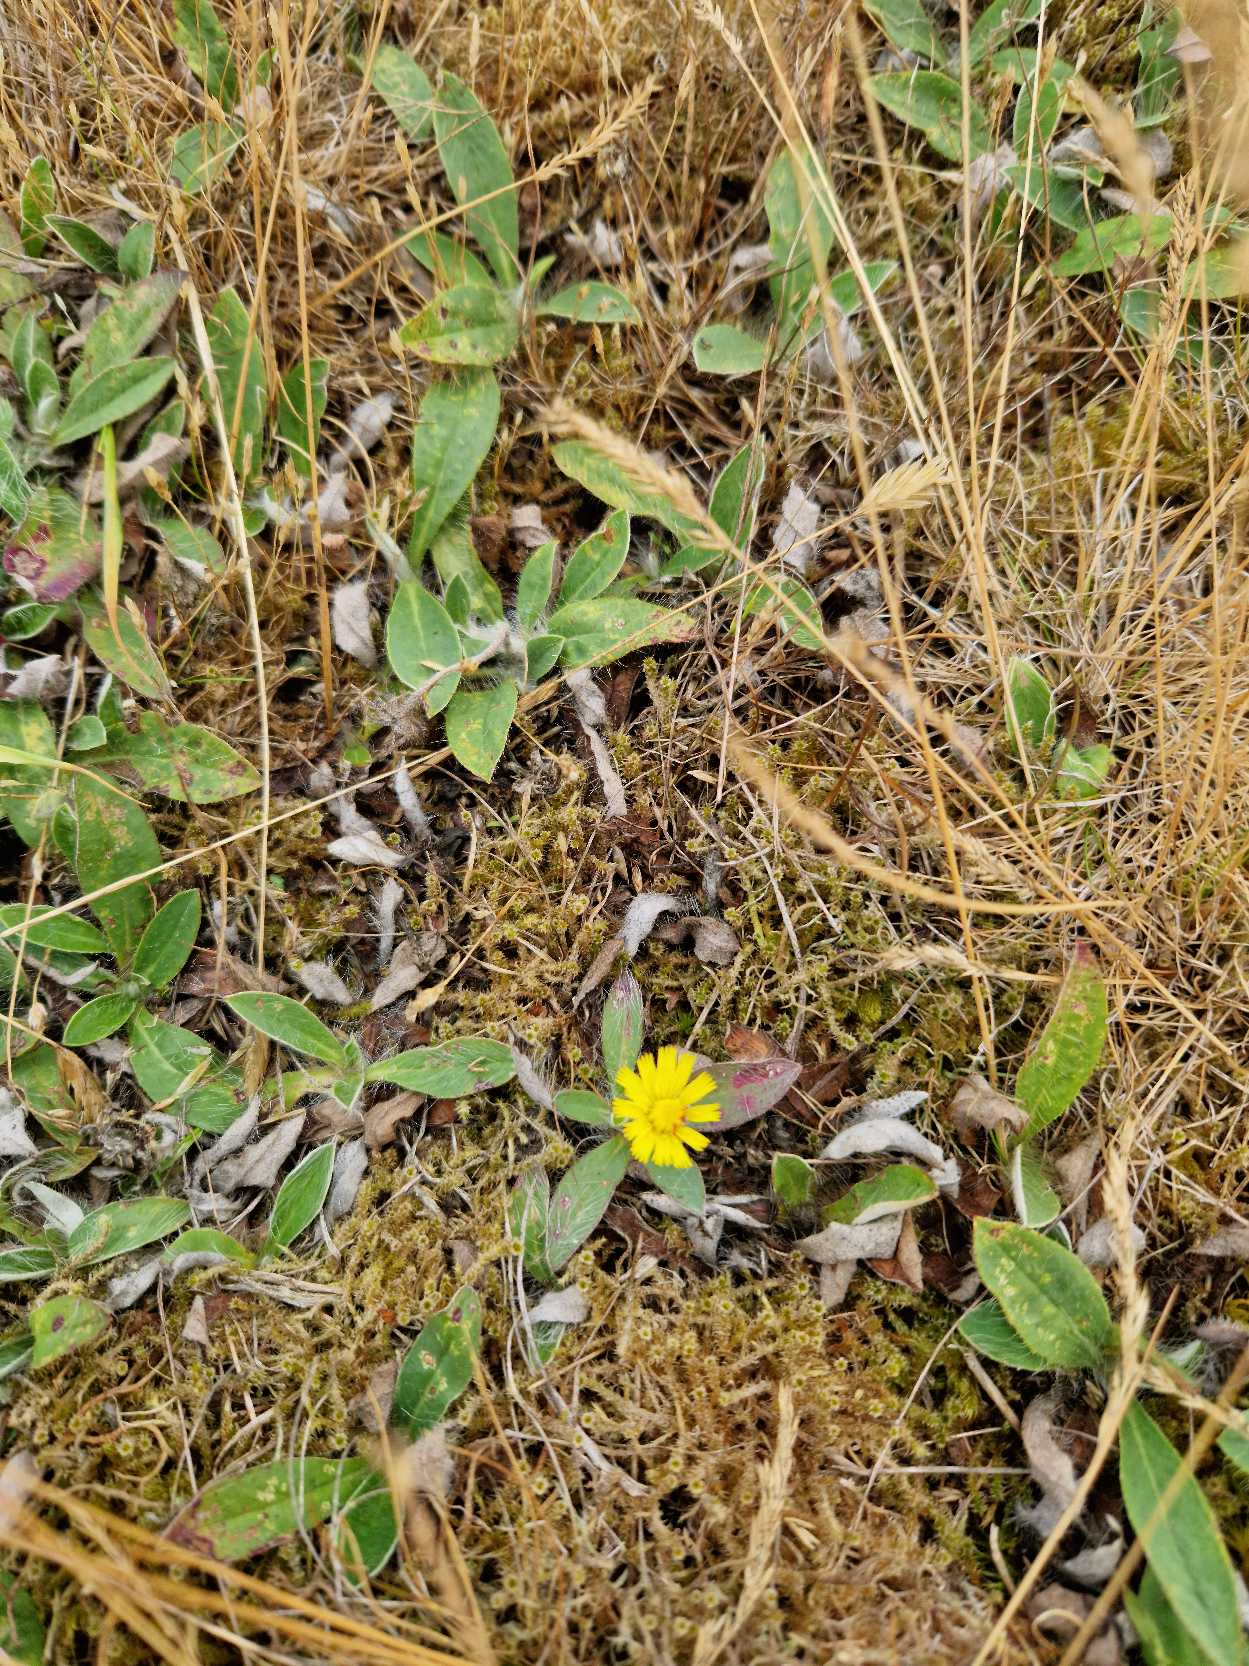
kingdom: Plantae
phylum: Tracheophyta
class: Magnoliopsida
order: Asterales
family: Asteraceae
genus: Pilosella
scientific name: Pilosella officinarum
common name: Håret høgeurt
